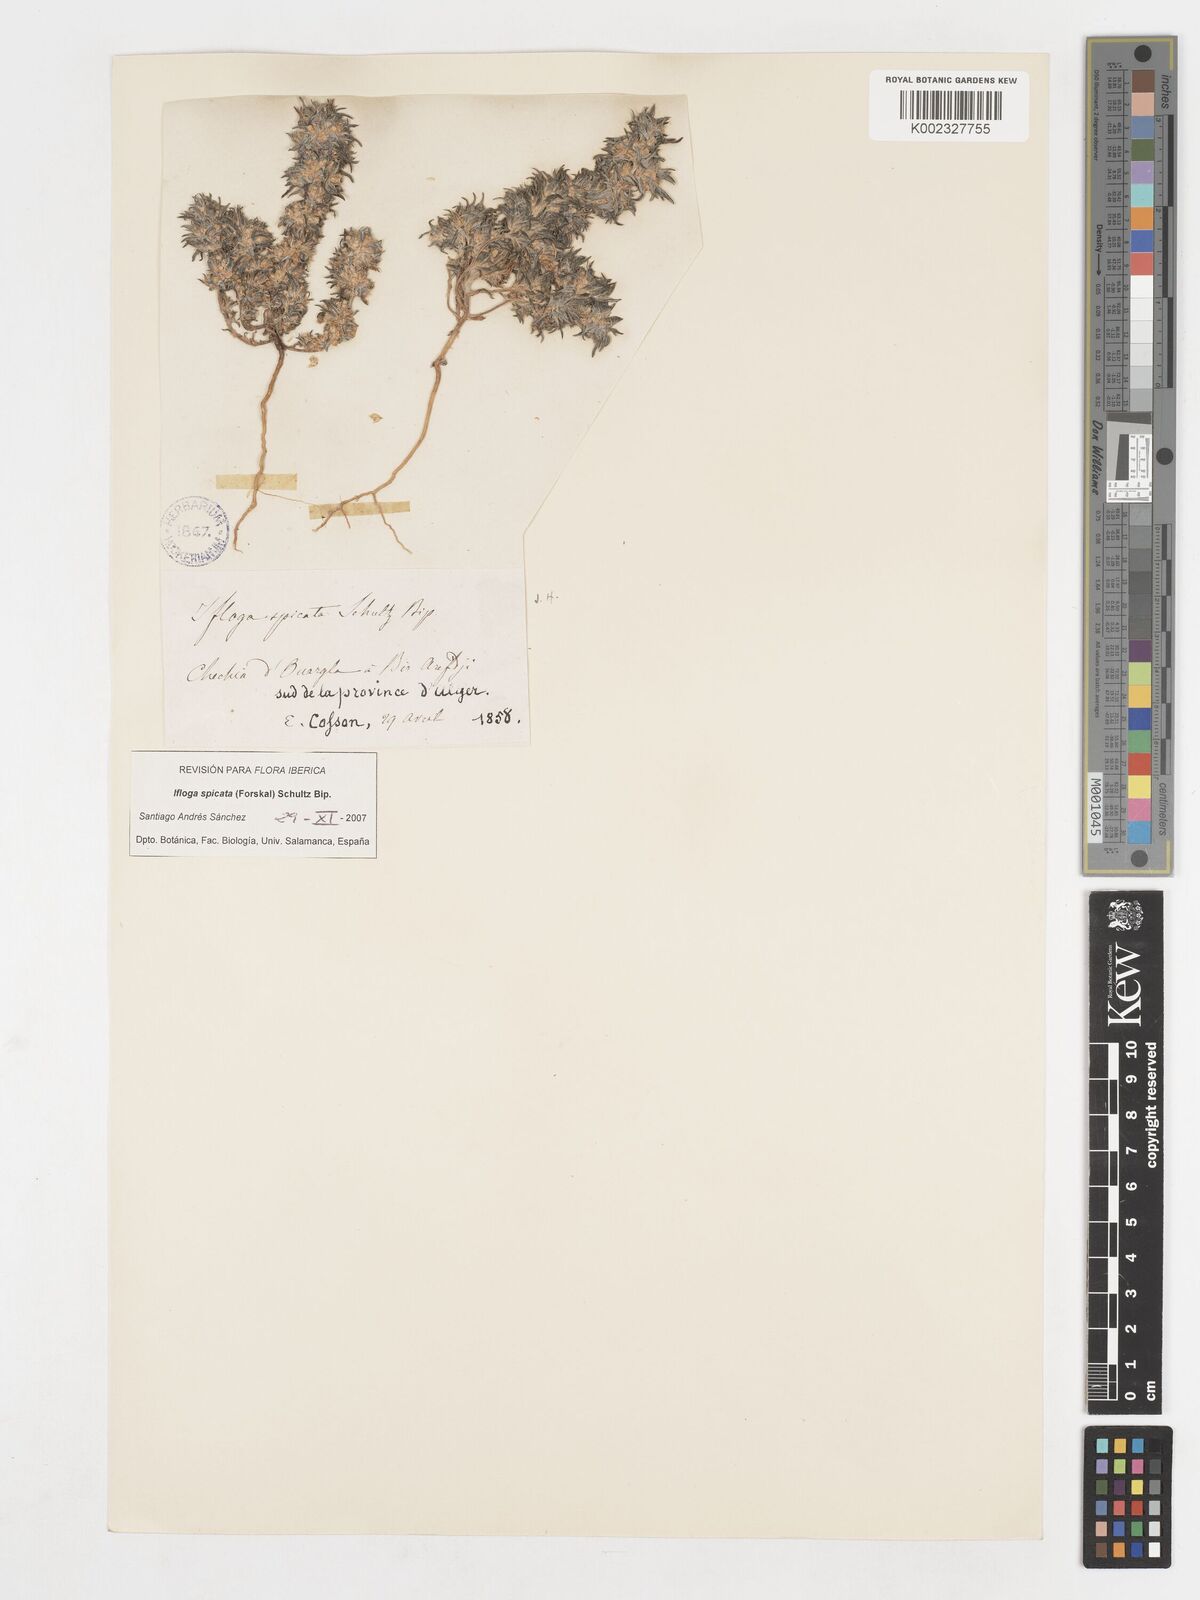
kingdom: Plantae
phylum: Tracheophyta
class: Magnoliopsida
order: Asterales
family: Asteraceae
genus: Ifloga
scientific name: Ifloga spicata
